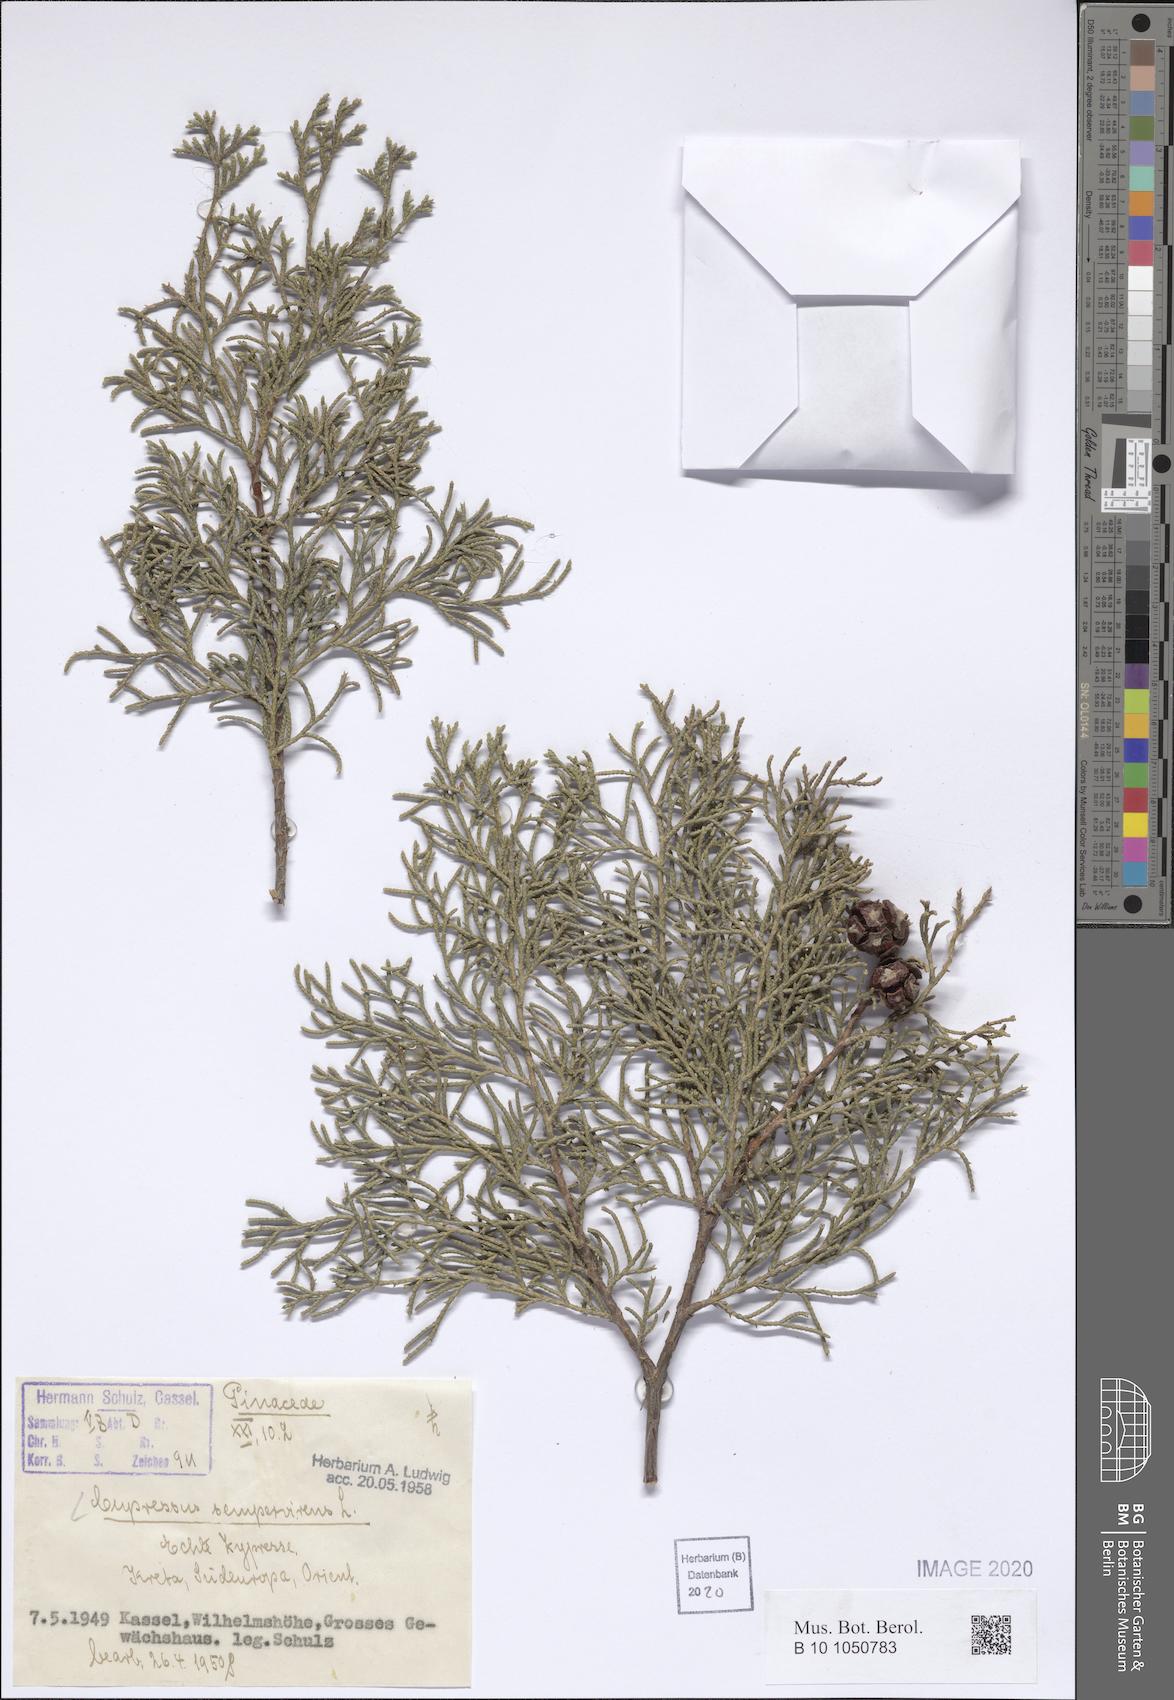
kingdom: Plantae
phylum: Tracheophyta
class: Pinopsida
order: Pinales
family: Cupressaceae
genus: Cupressus
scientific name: Cupressus sempervirens
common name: Italian cypress
